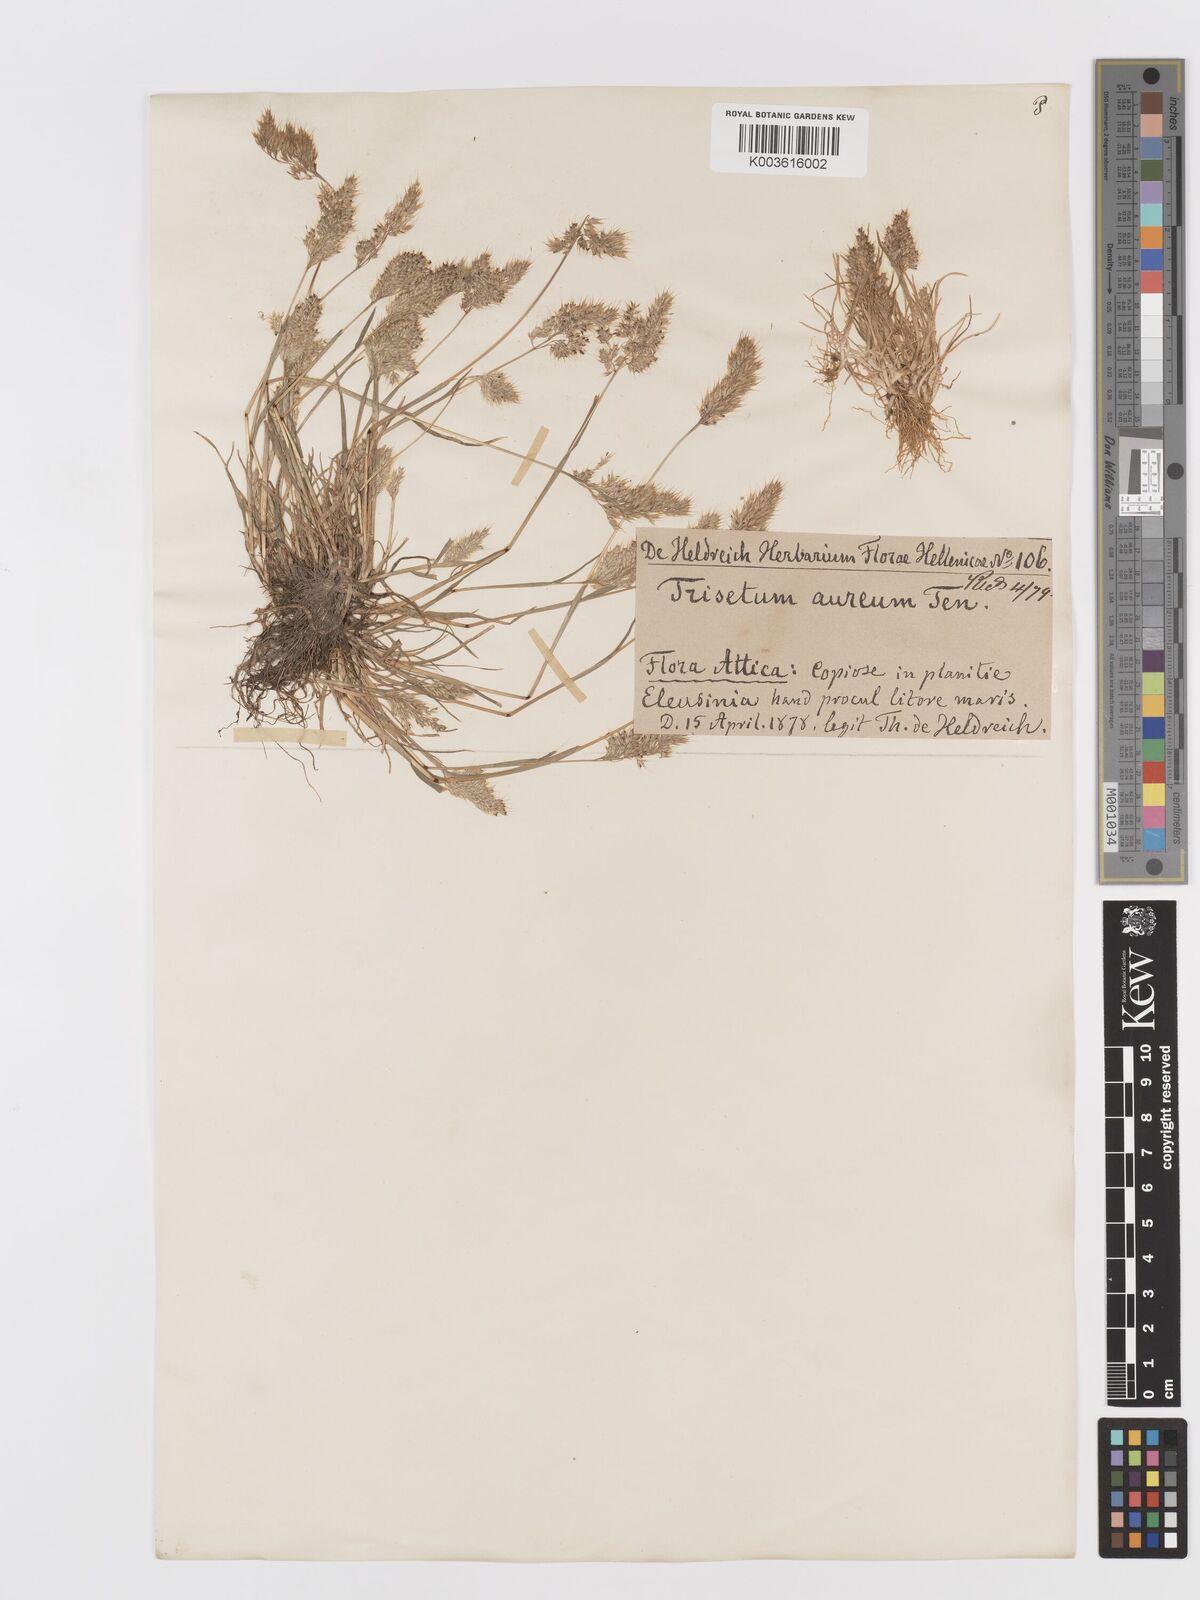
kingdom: Plantae
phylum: Tracheophyta
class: Liliopsida
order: Poales
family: Poaceae
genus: Trisetaria
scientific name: Trisetaria aurea
